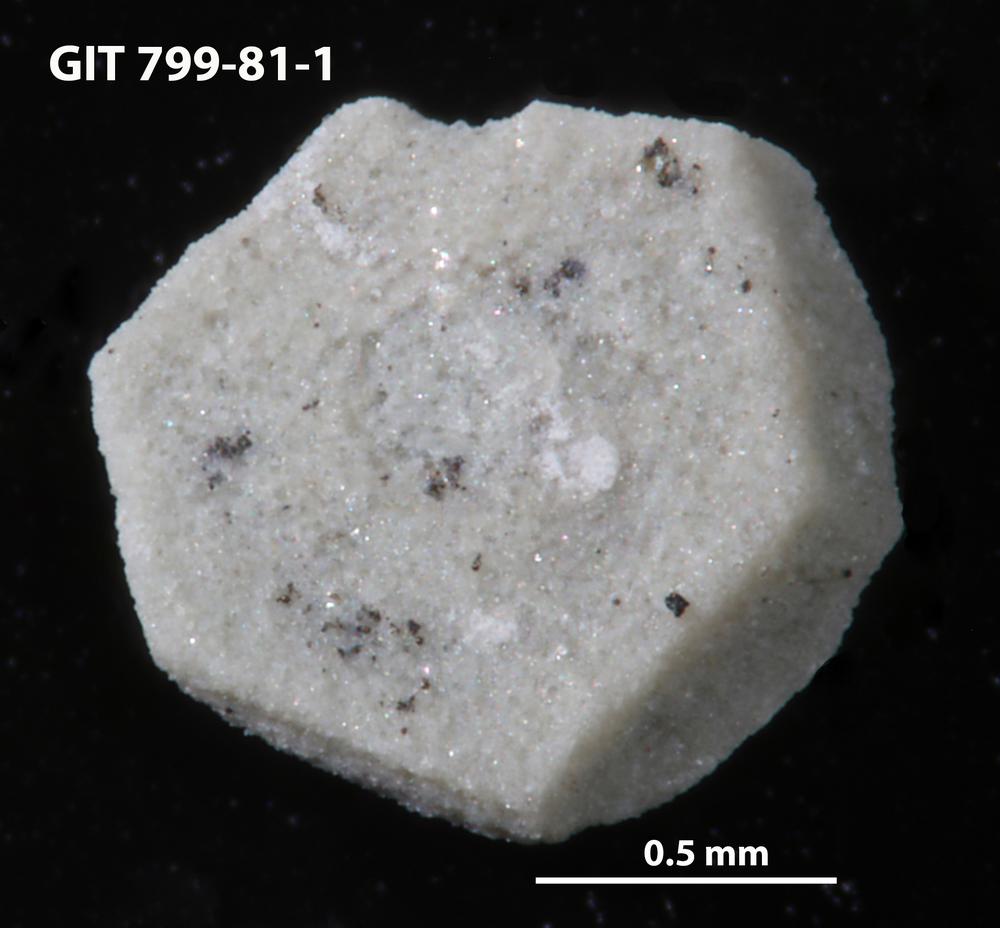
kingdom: Animalia
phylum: Echinodermata
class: Echinoidea
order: Bothriocidaroida
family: Bothriocidaridae
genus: Neobothriocidaris
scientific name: Neobothriocidaris
